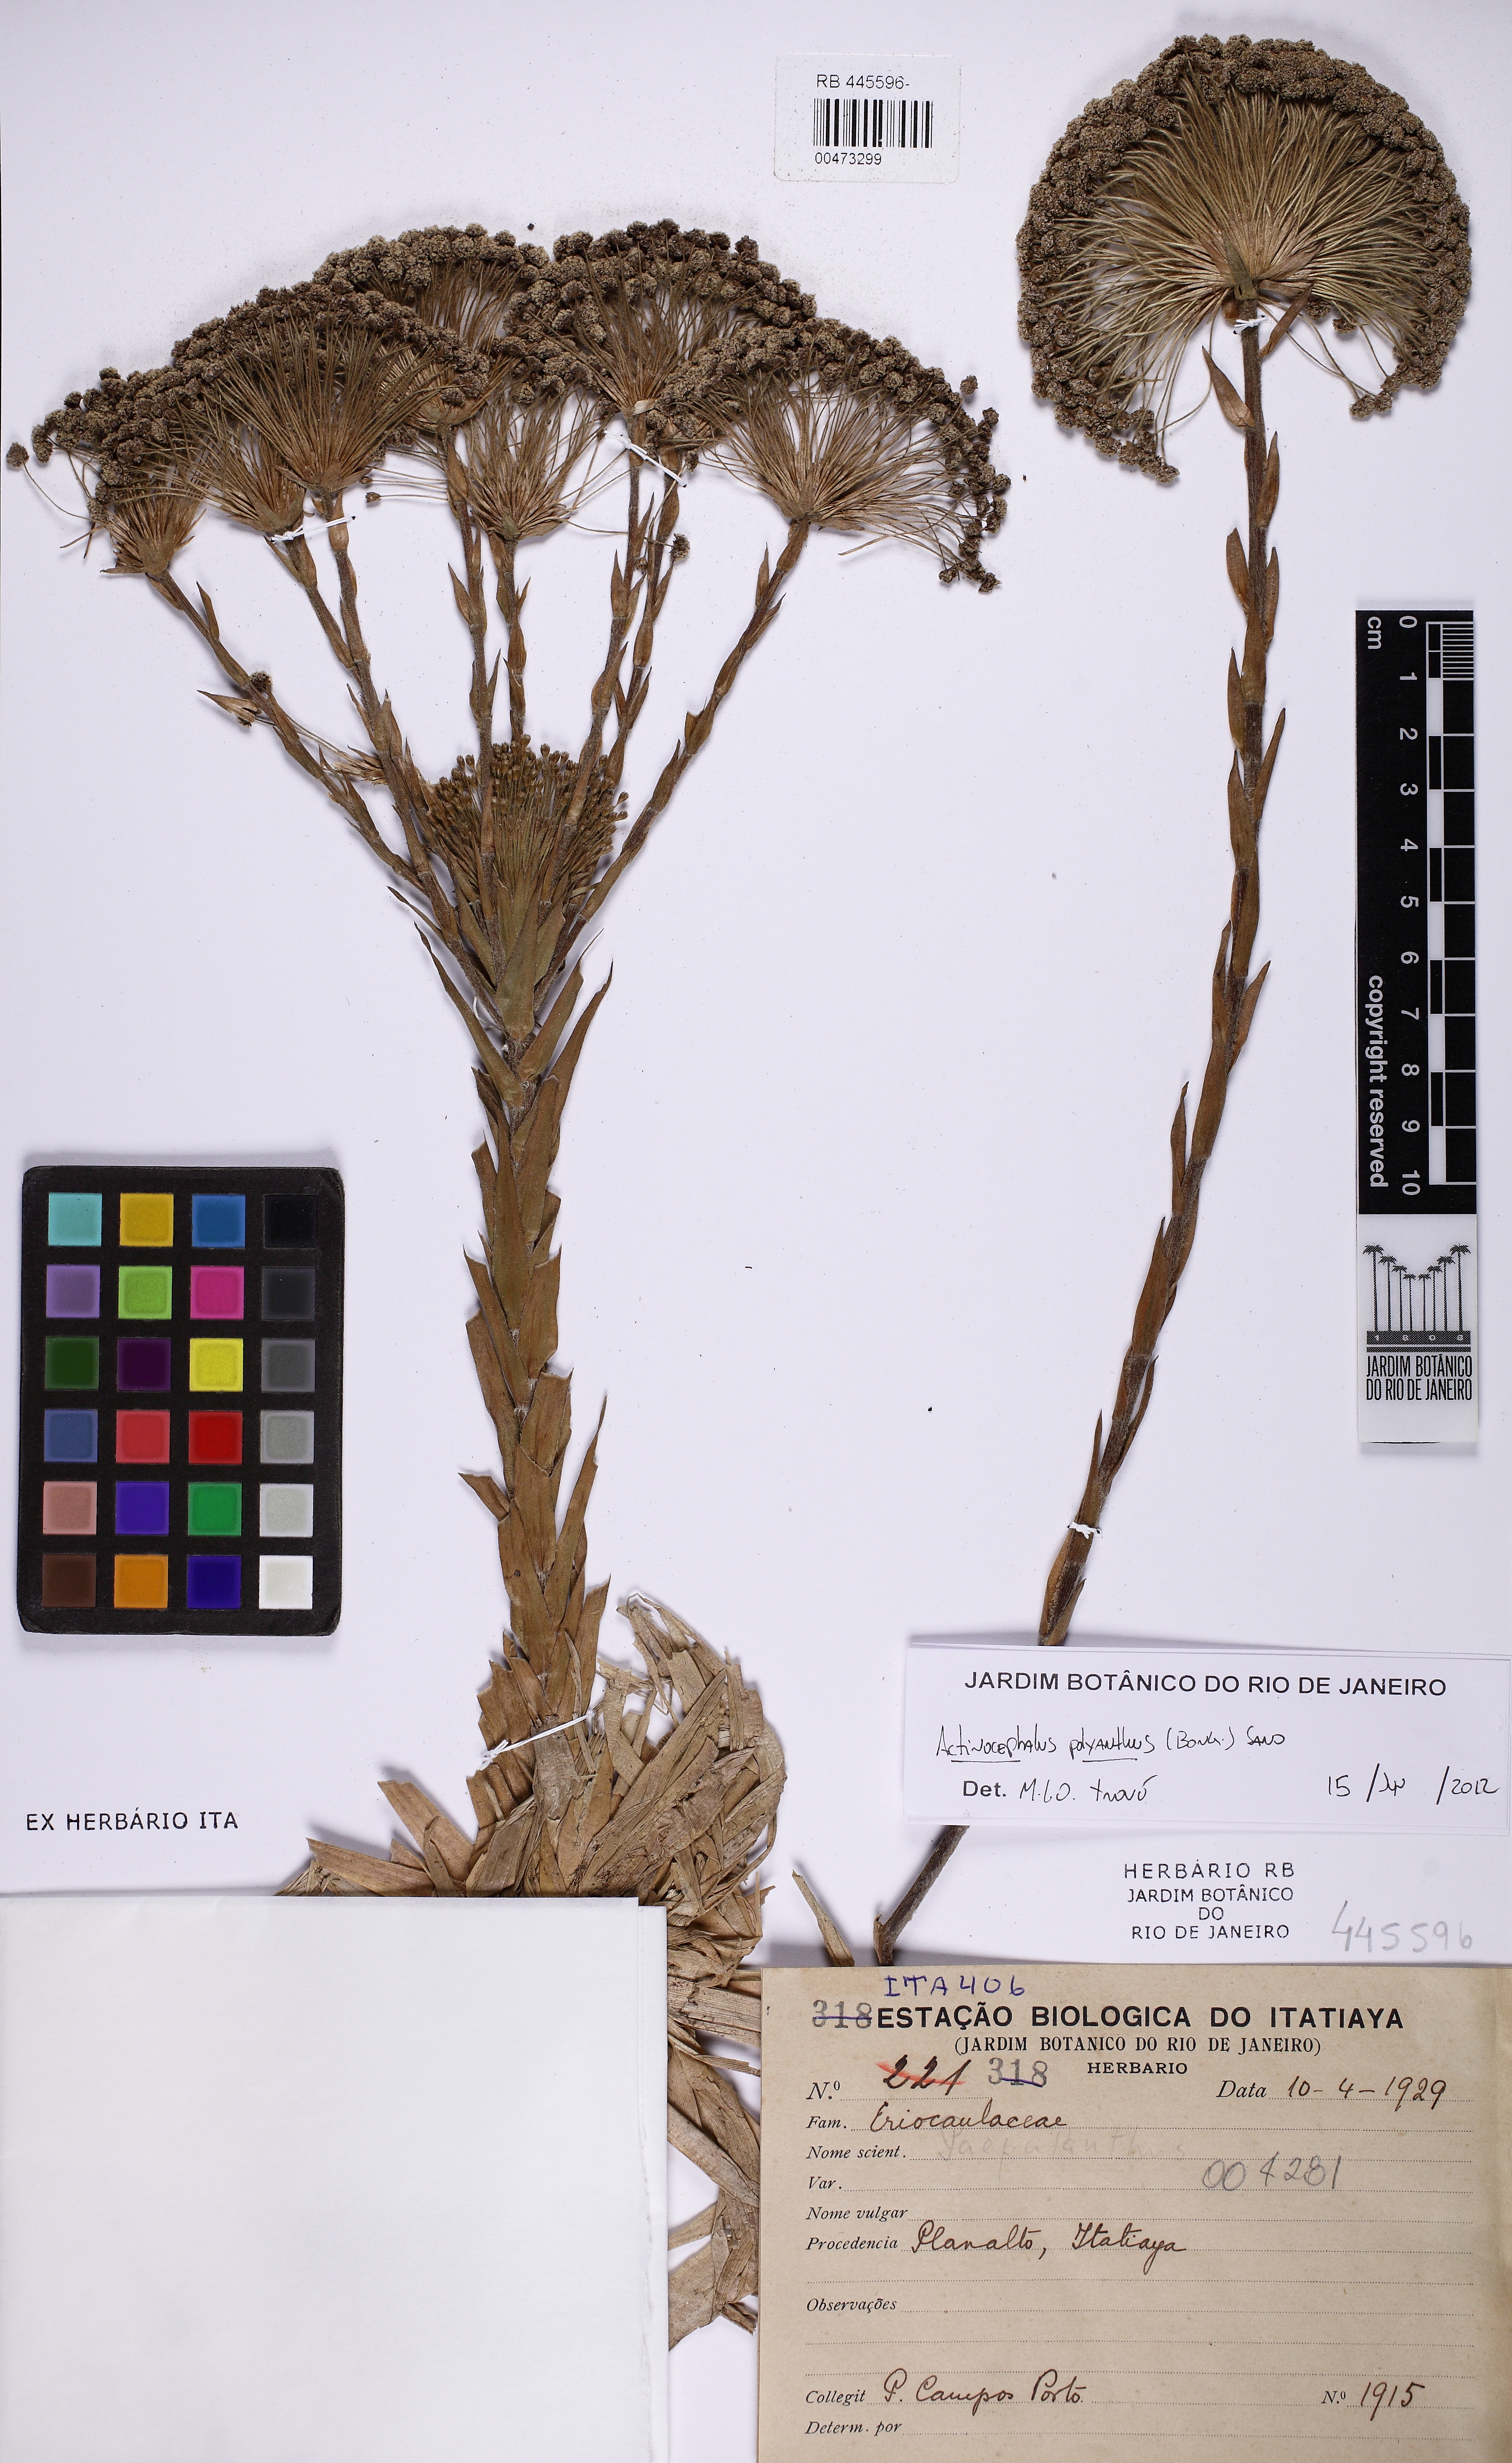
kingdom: Plantae
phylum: Tracheophyta
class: Liliopsida
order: Poales
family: Eriocaulaceae
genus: Paepalanthus
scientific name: Paepalanthus polyanthus
